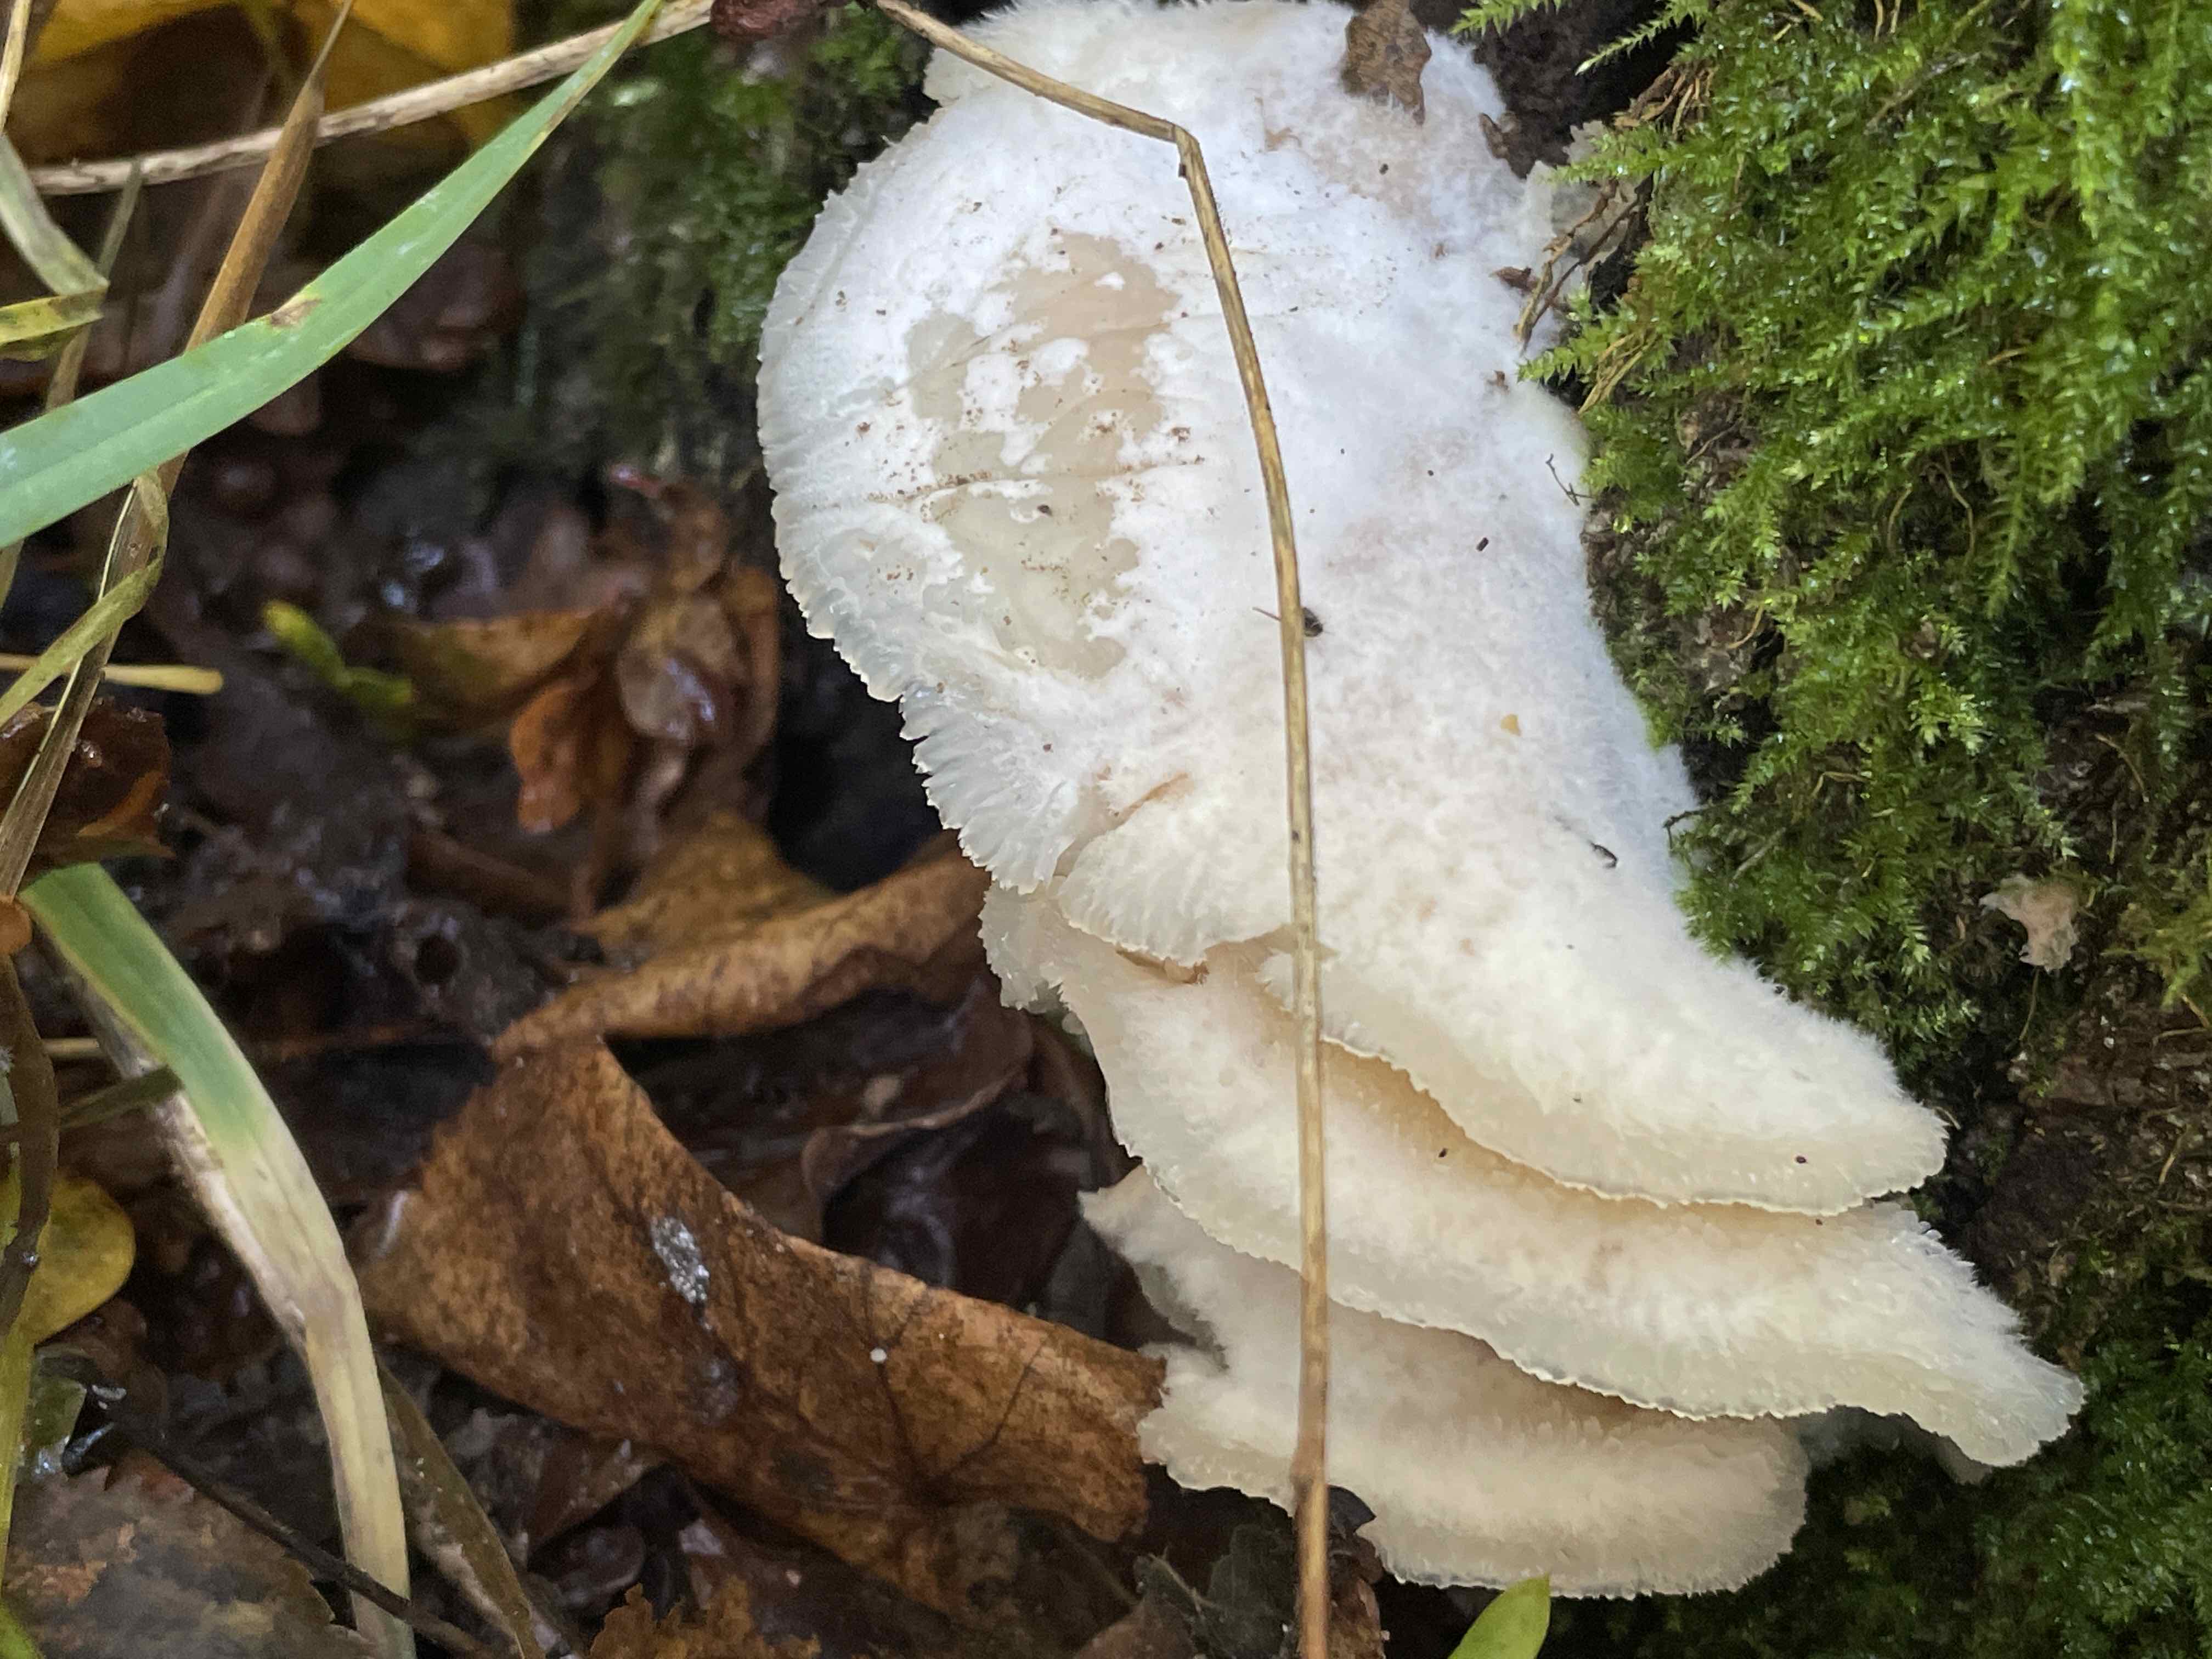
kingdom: Fungi
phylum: Basidiomycota
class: Agaricomycetes
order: Polyporales
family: Meruliaceae
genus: Phlebia
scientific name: Phlebia tremellosa
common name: bævrende åresvamp
